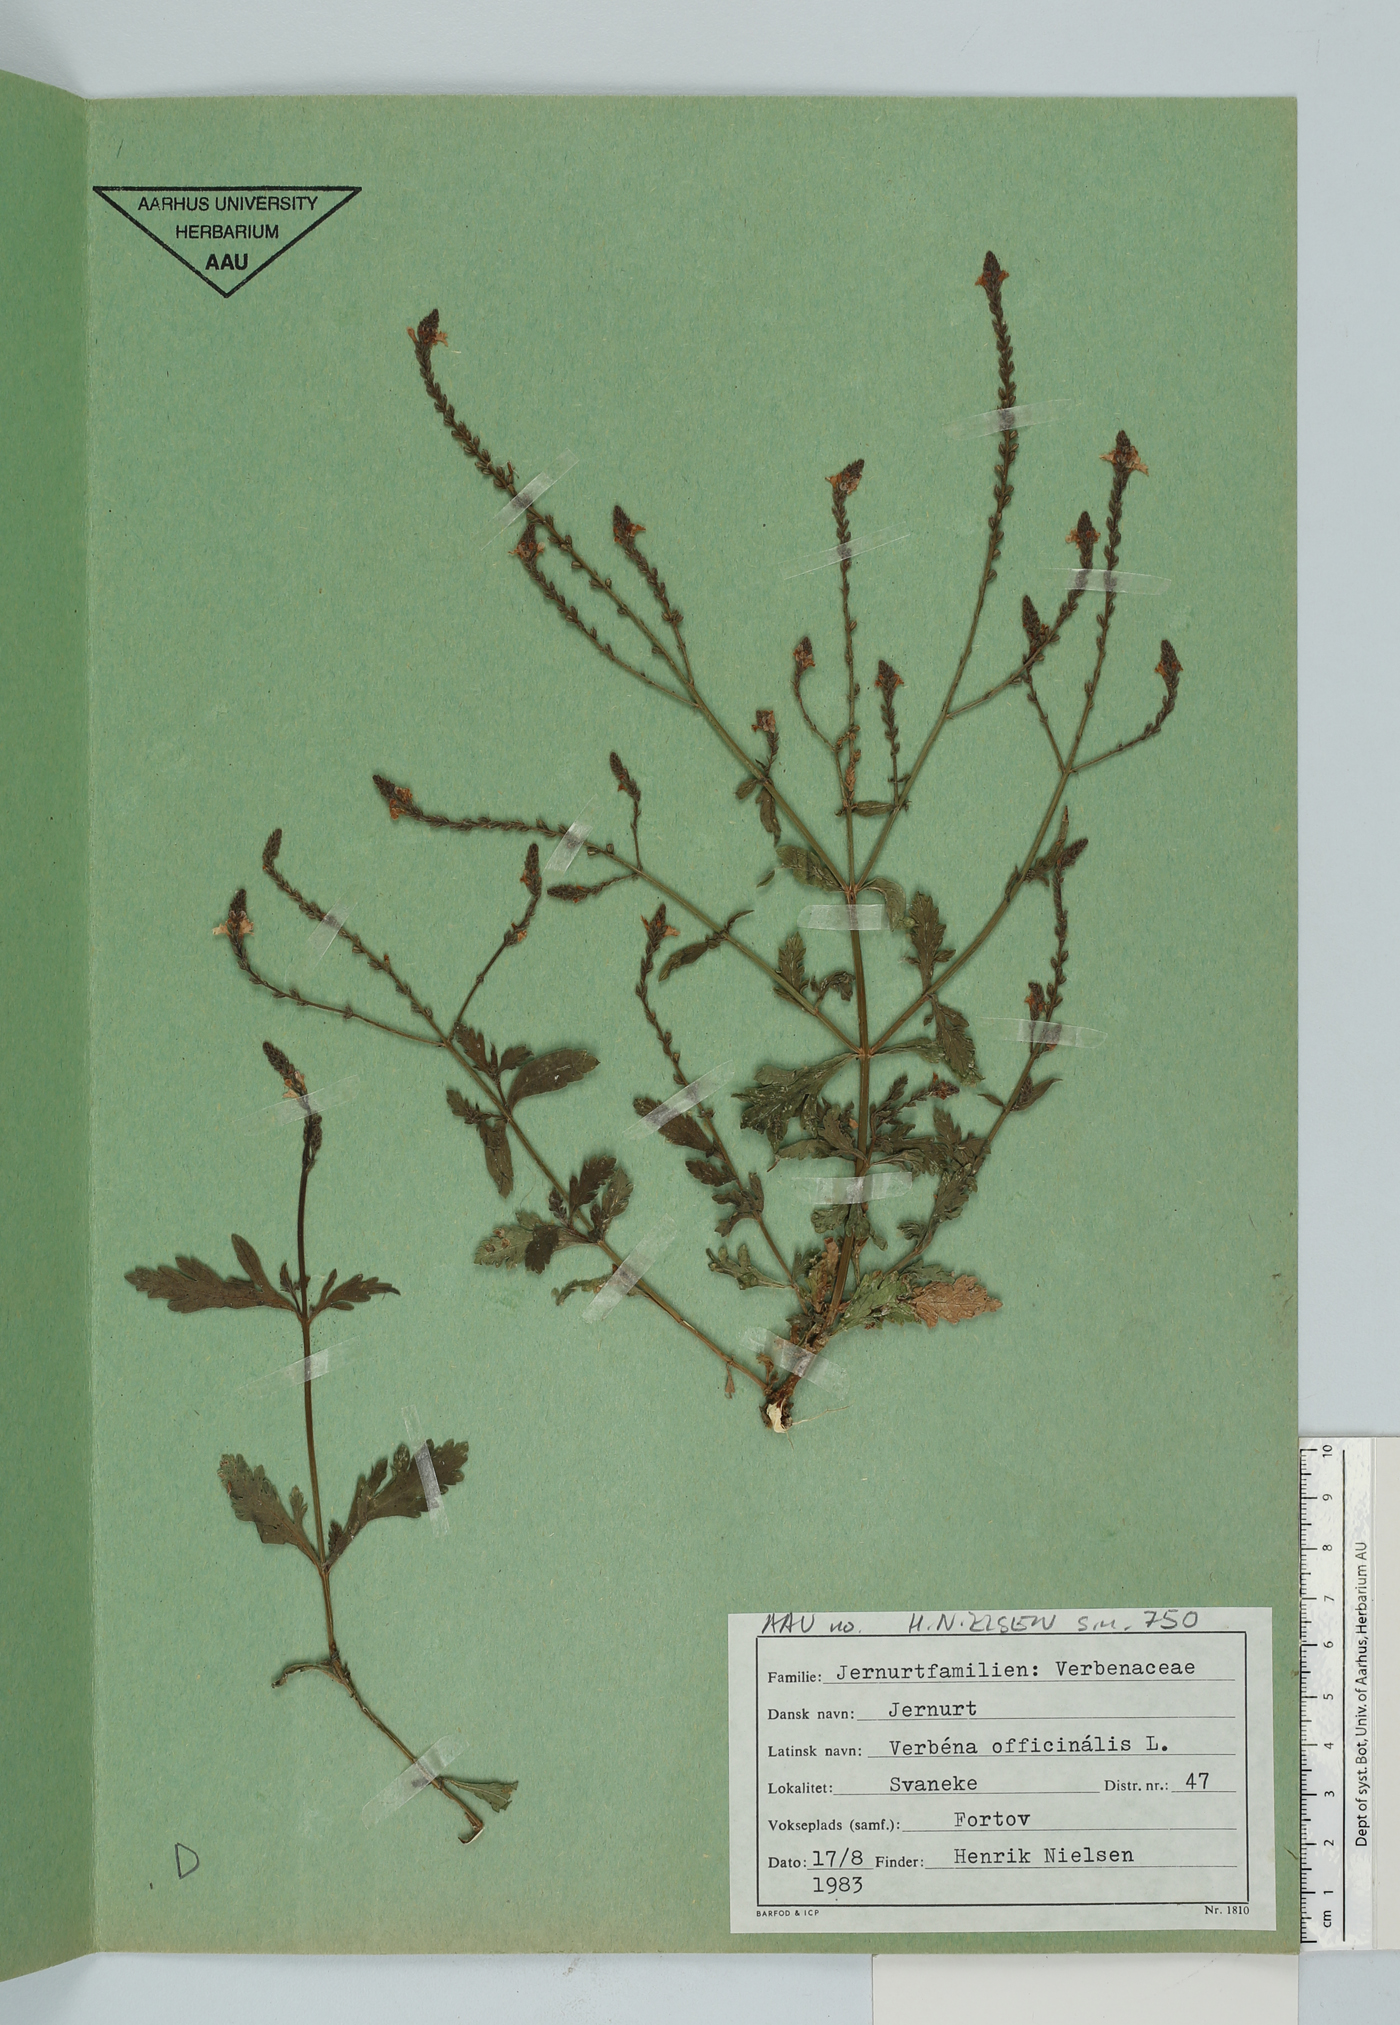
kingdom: Plantae
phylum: Tracheophyta
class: Magnoliopsida
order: Lamiales
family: Verbenaceae
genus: Verbena
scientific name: Verbena officinalis
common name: Vervain
